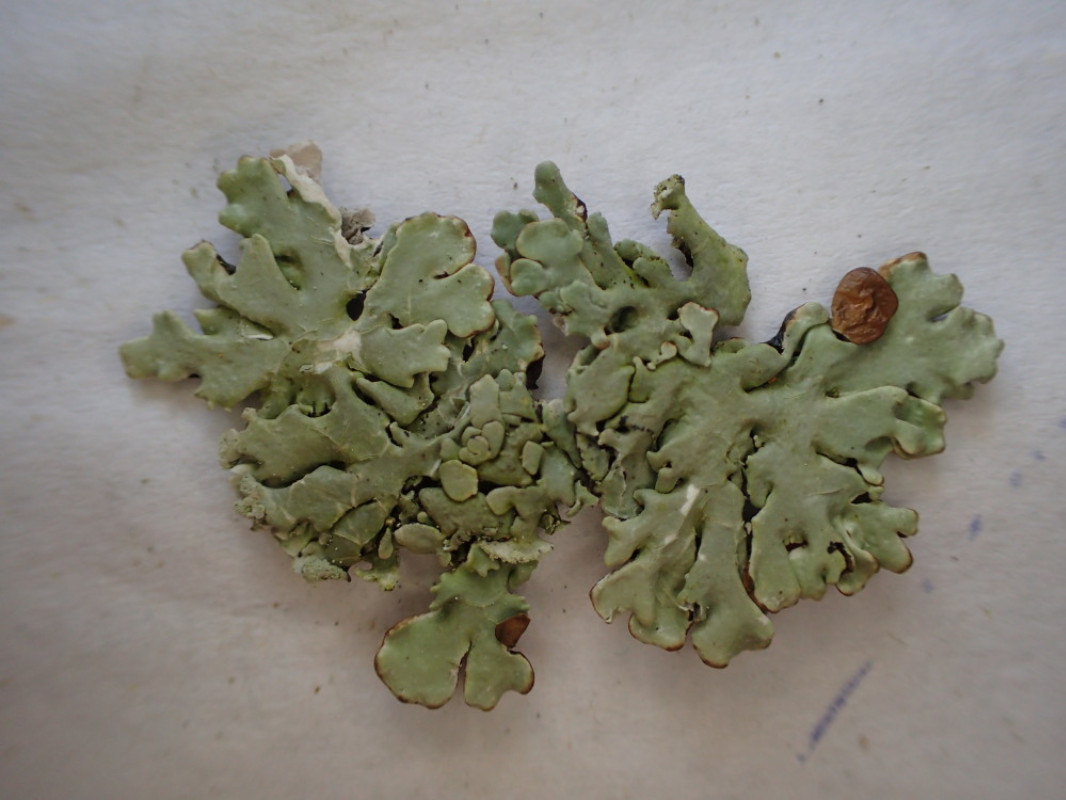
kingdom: Fungi
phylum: Ascomycota
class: Lecanoromycetes
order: Lecanorales
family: Parmeliaceae
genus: Hypogymnia
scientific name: Hypogymnia physodes
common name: almindelig kvistlav
